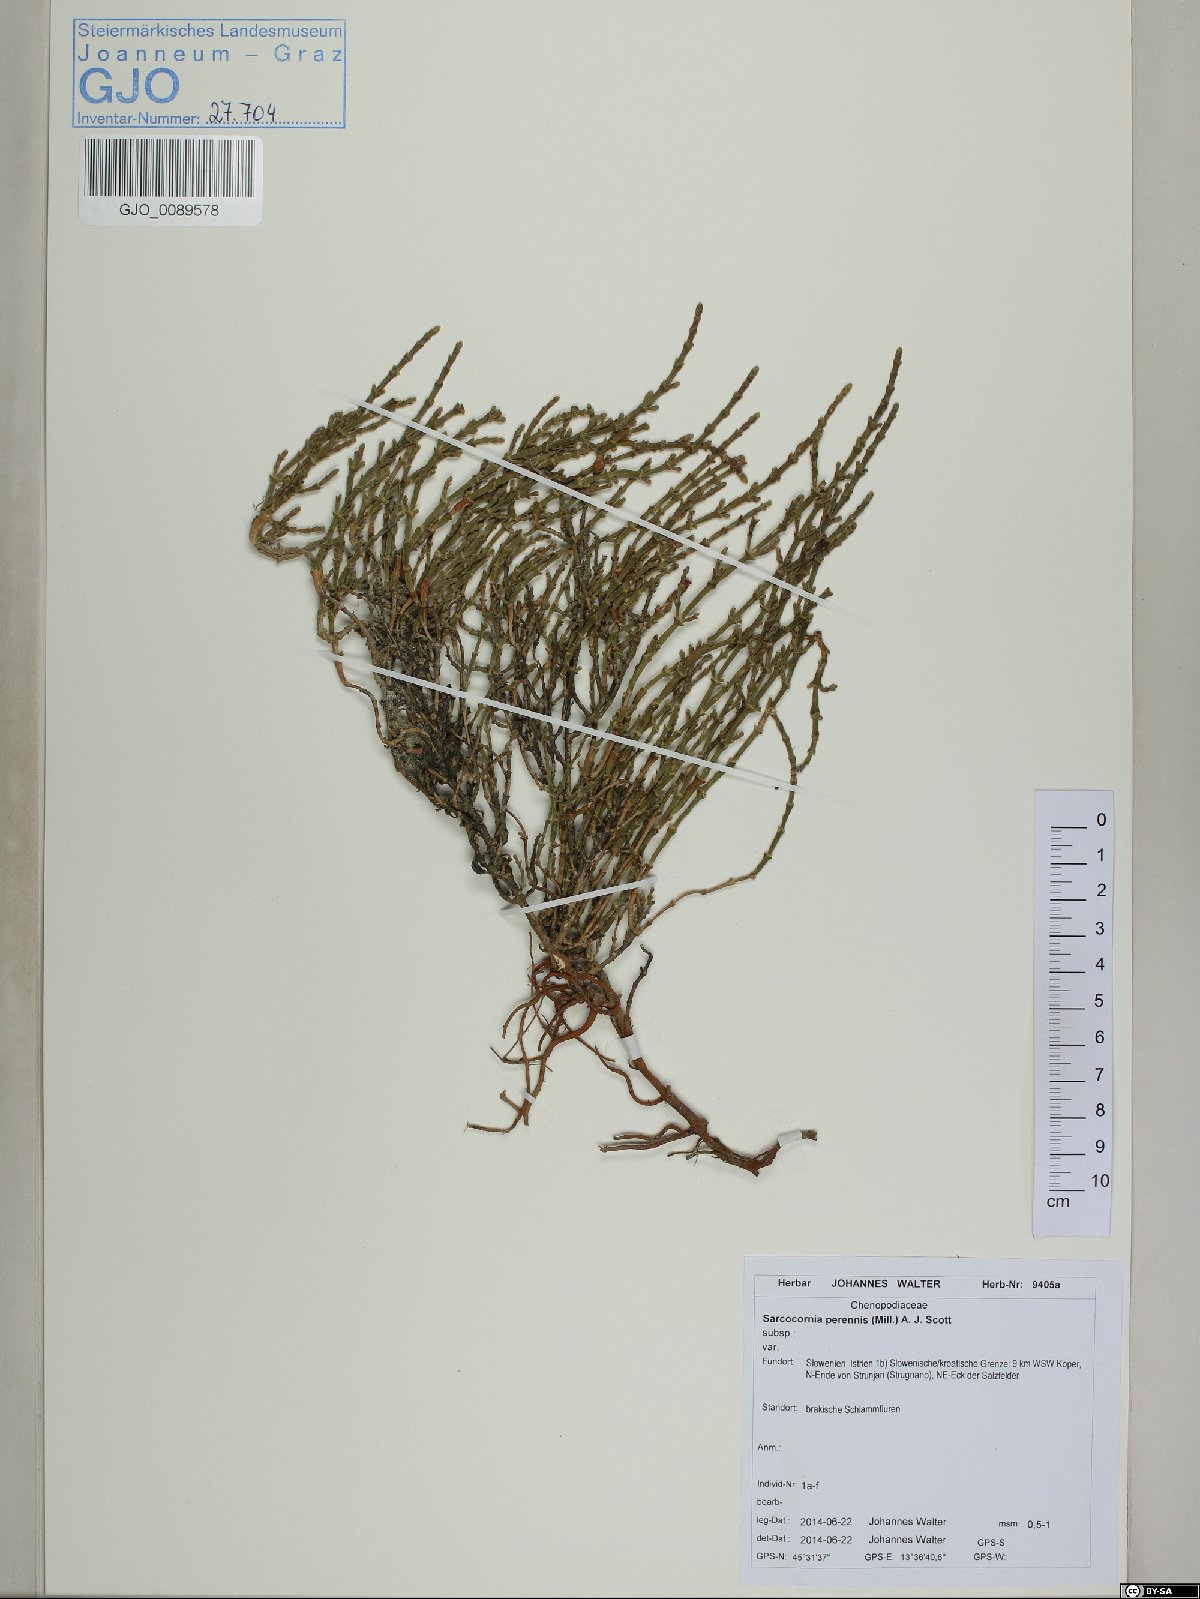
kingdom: Plantae
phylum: Tracheophyta
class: Magnoliopsida
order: Caryophyllales
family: Amaranthaceae
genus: Salicornia
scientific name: Salicornia perennis
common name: Chicken claws
